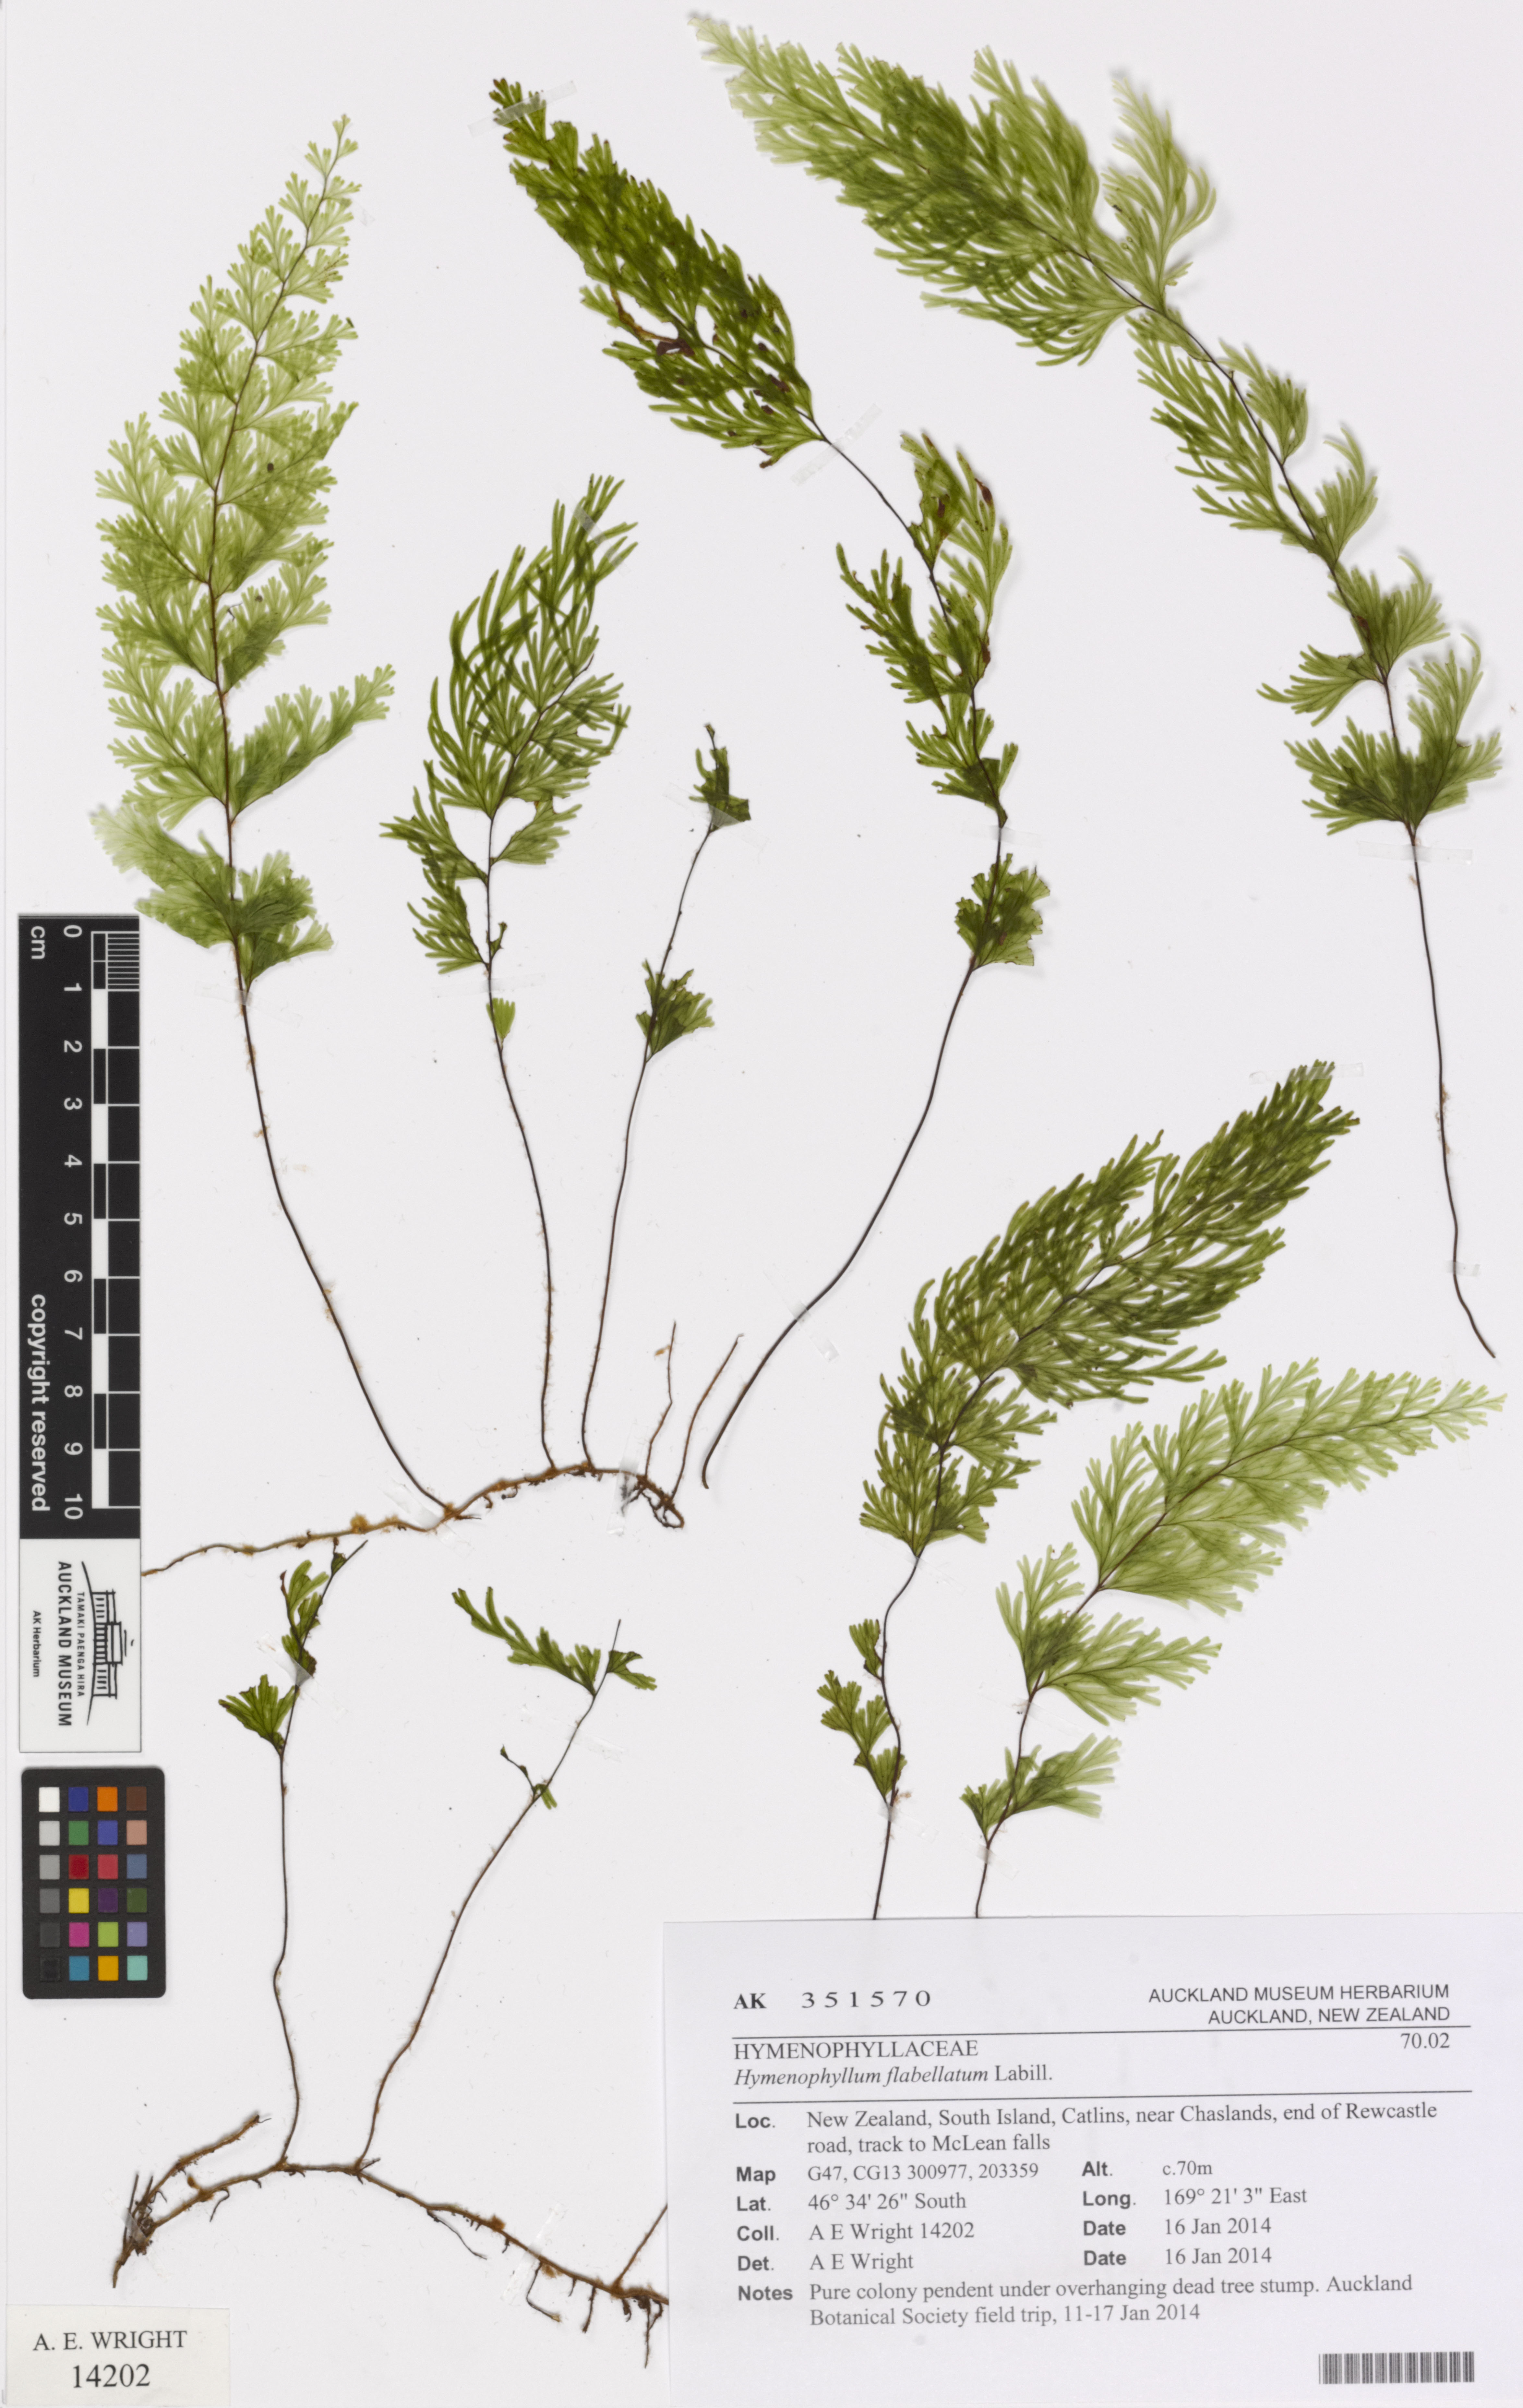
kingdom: Plantae
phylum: Tracheophyta
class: Polypodiopsida
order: Hymenophyllales
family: Hymenophyllaceae
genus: Hymenophyllum
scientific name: Hymenophyllum flabellatum
